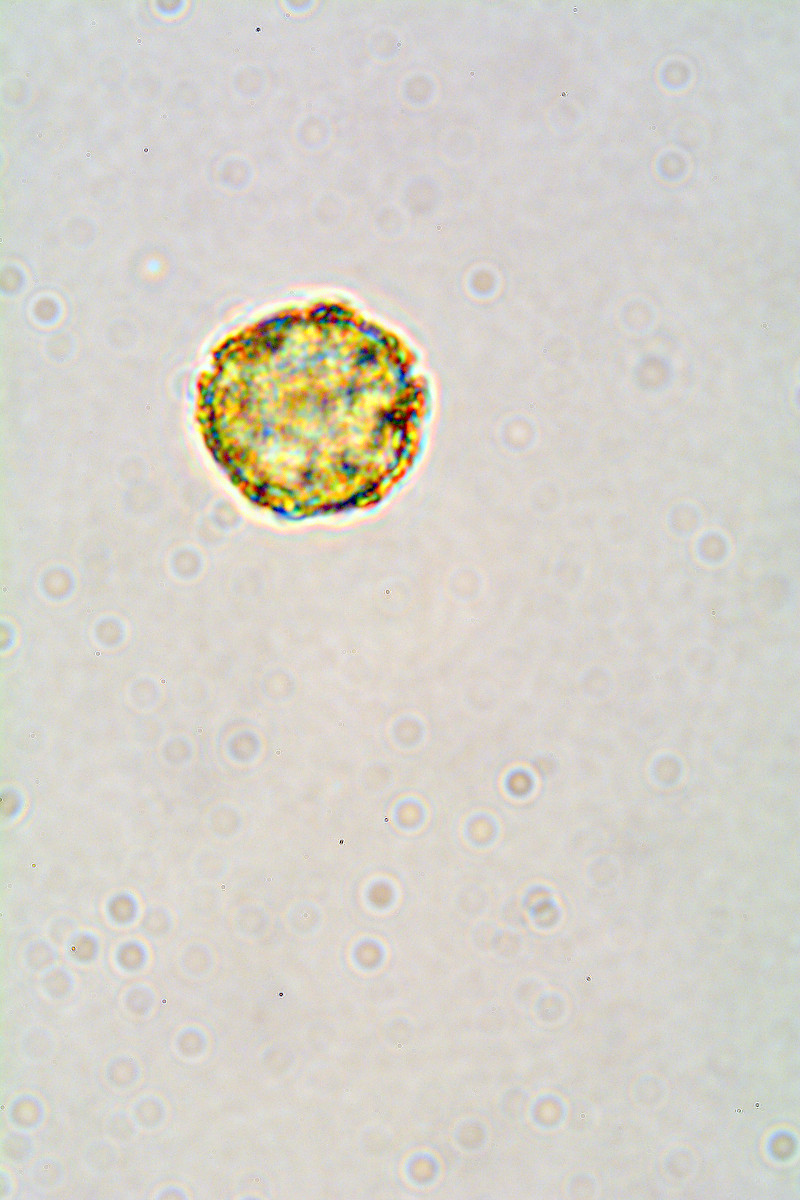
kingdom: Protozoa
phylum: Mycetozoa
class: Myxomycetes
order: Trichiales
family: Trichiaceae
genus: Oligonema
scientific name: Oligonema persimile
